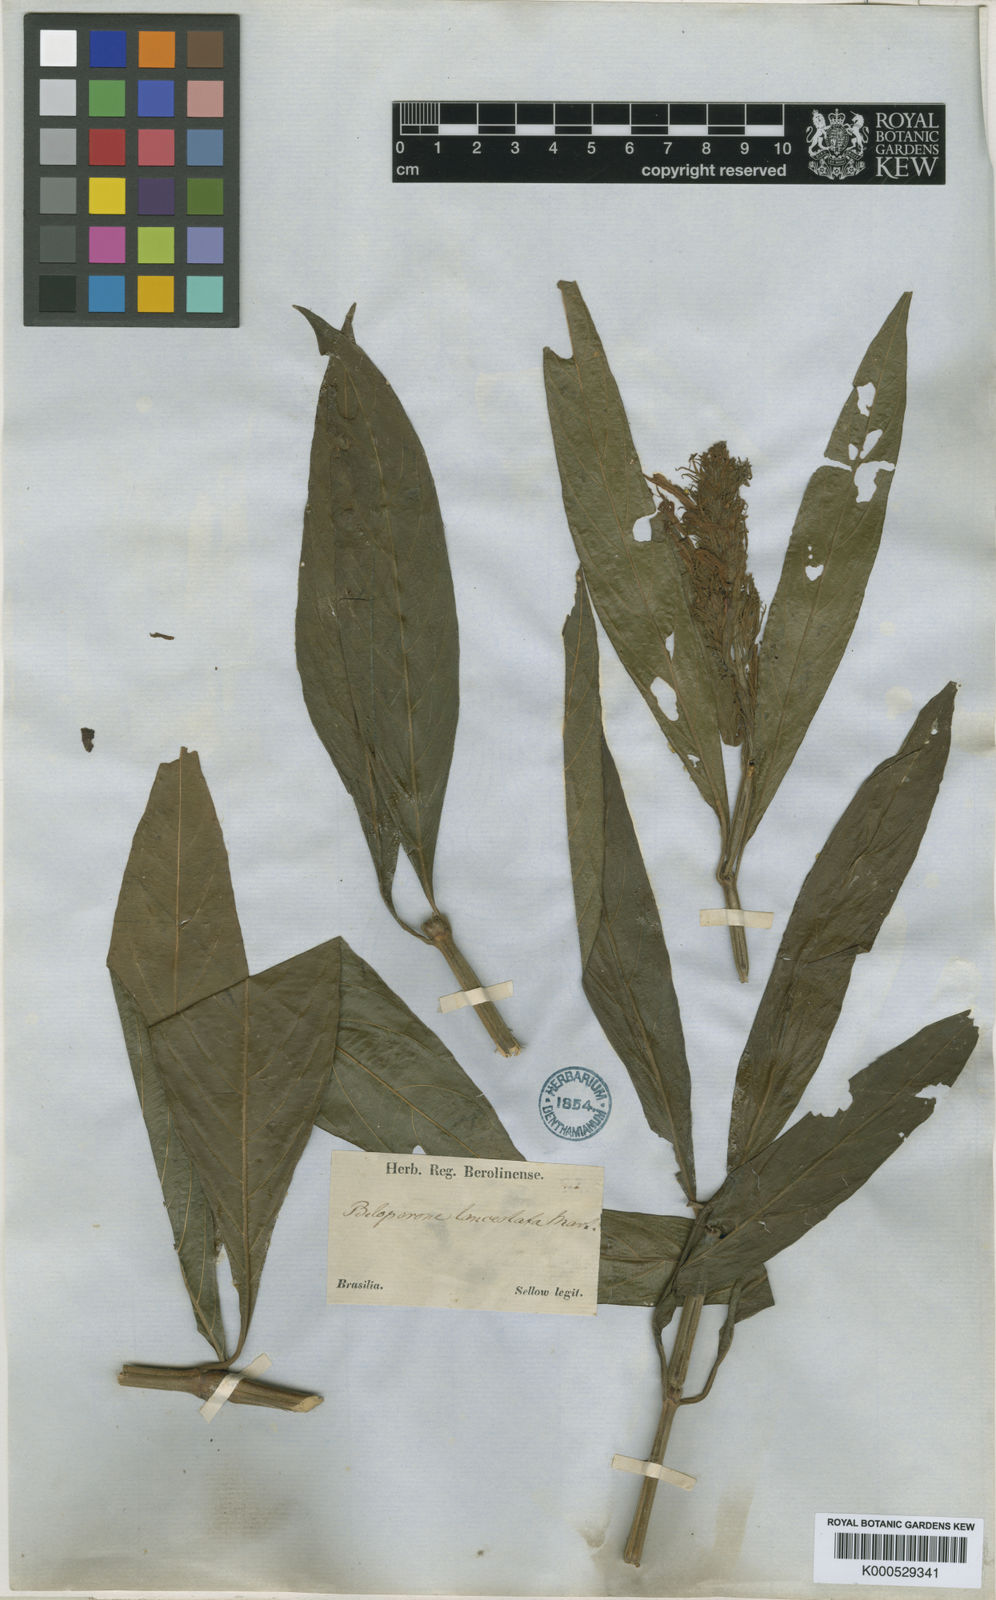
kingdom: Plantae
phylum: Tracheophyta
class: Magnoliopsida
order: Lamiales
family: Acanthaceae
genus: Justicia
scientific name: Justicia minensis
